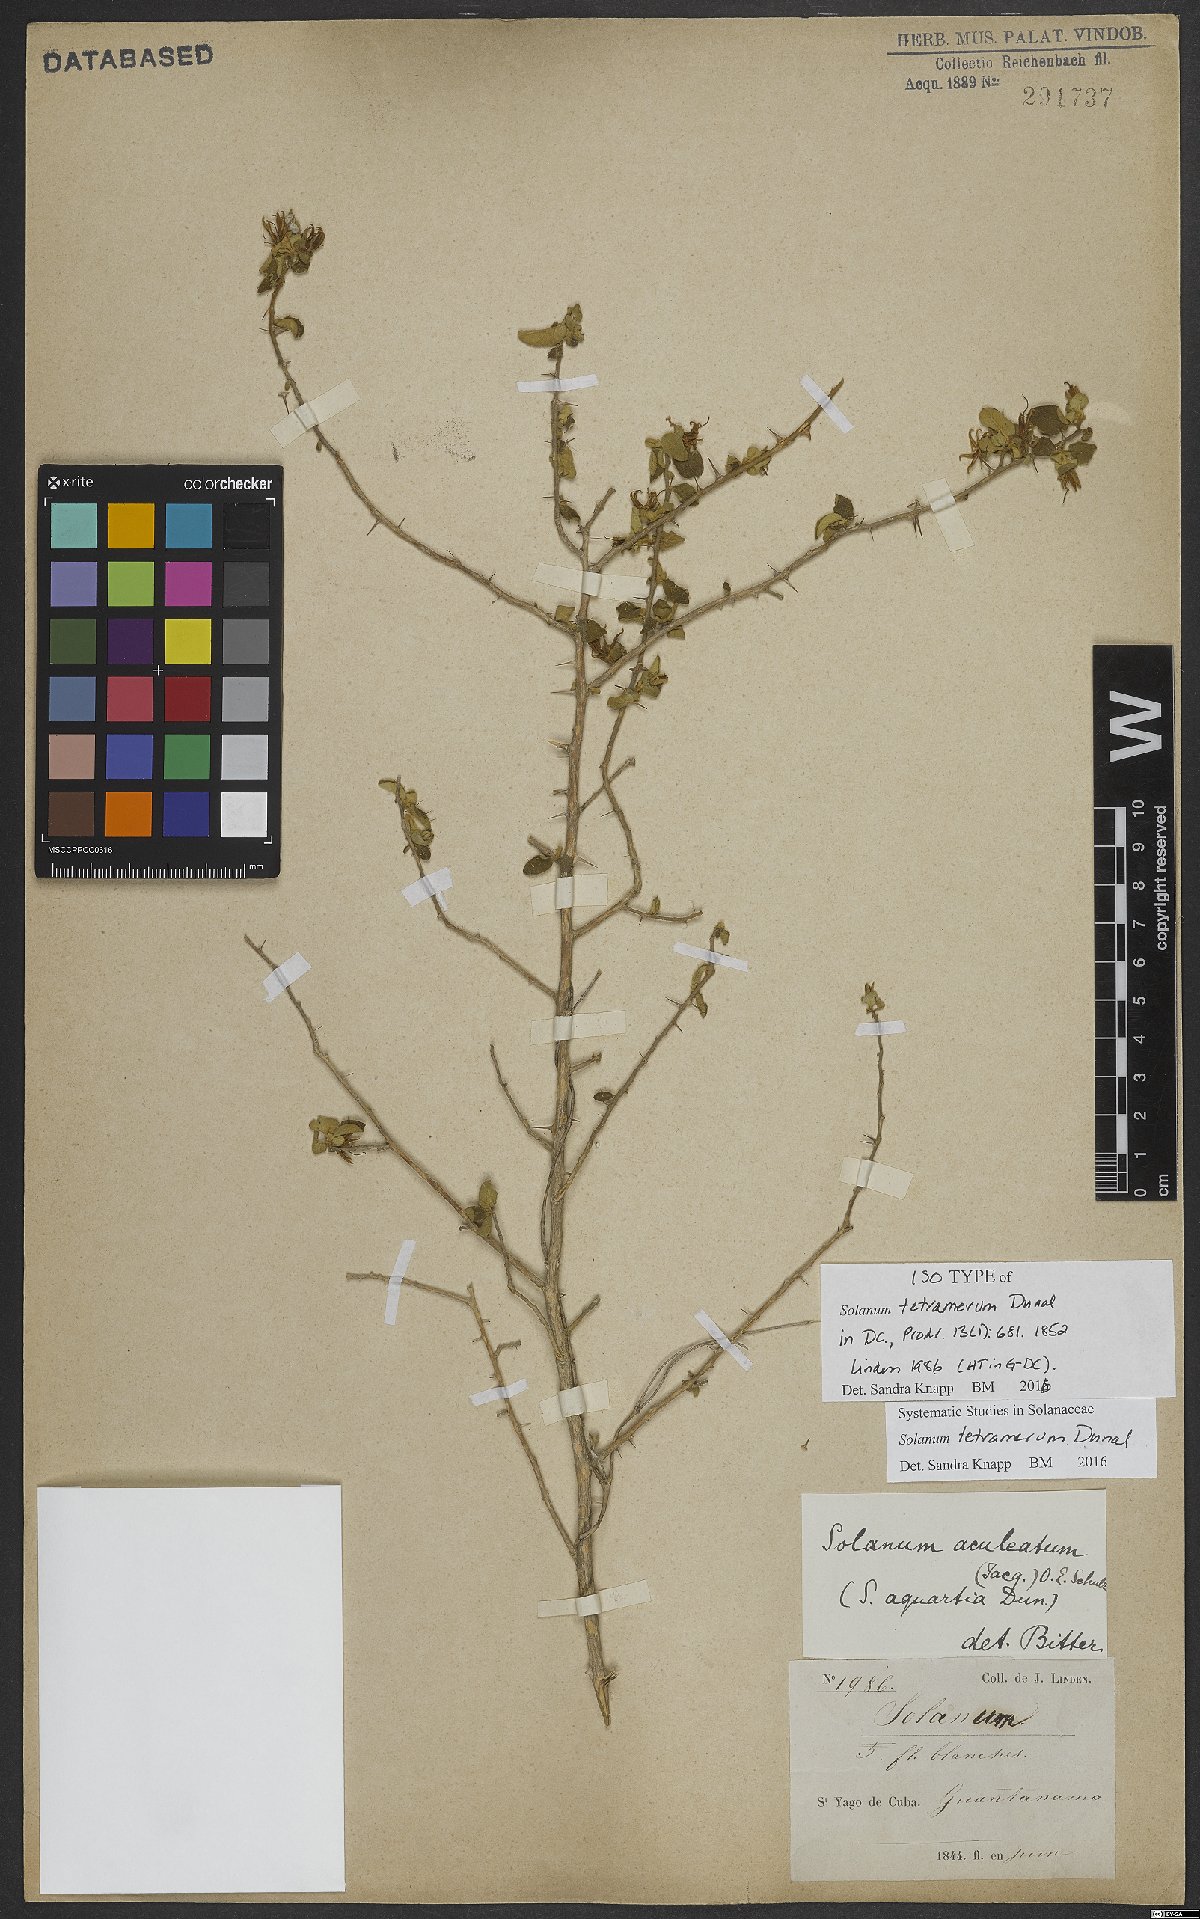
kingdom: Plantae
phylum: Tracheophyta
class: Magnoliopsida
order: Solanales
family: Solanaceae
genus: Solanum
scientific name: Solanum tetramerum
